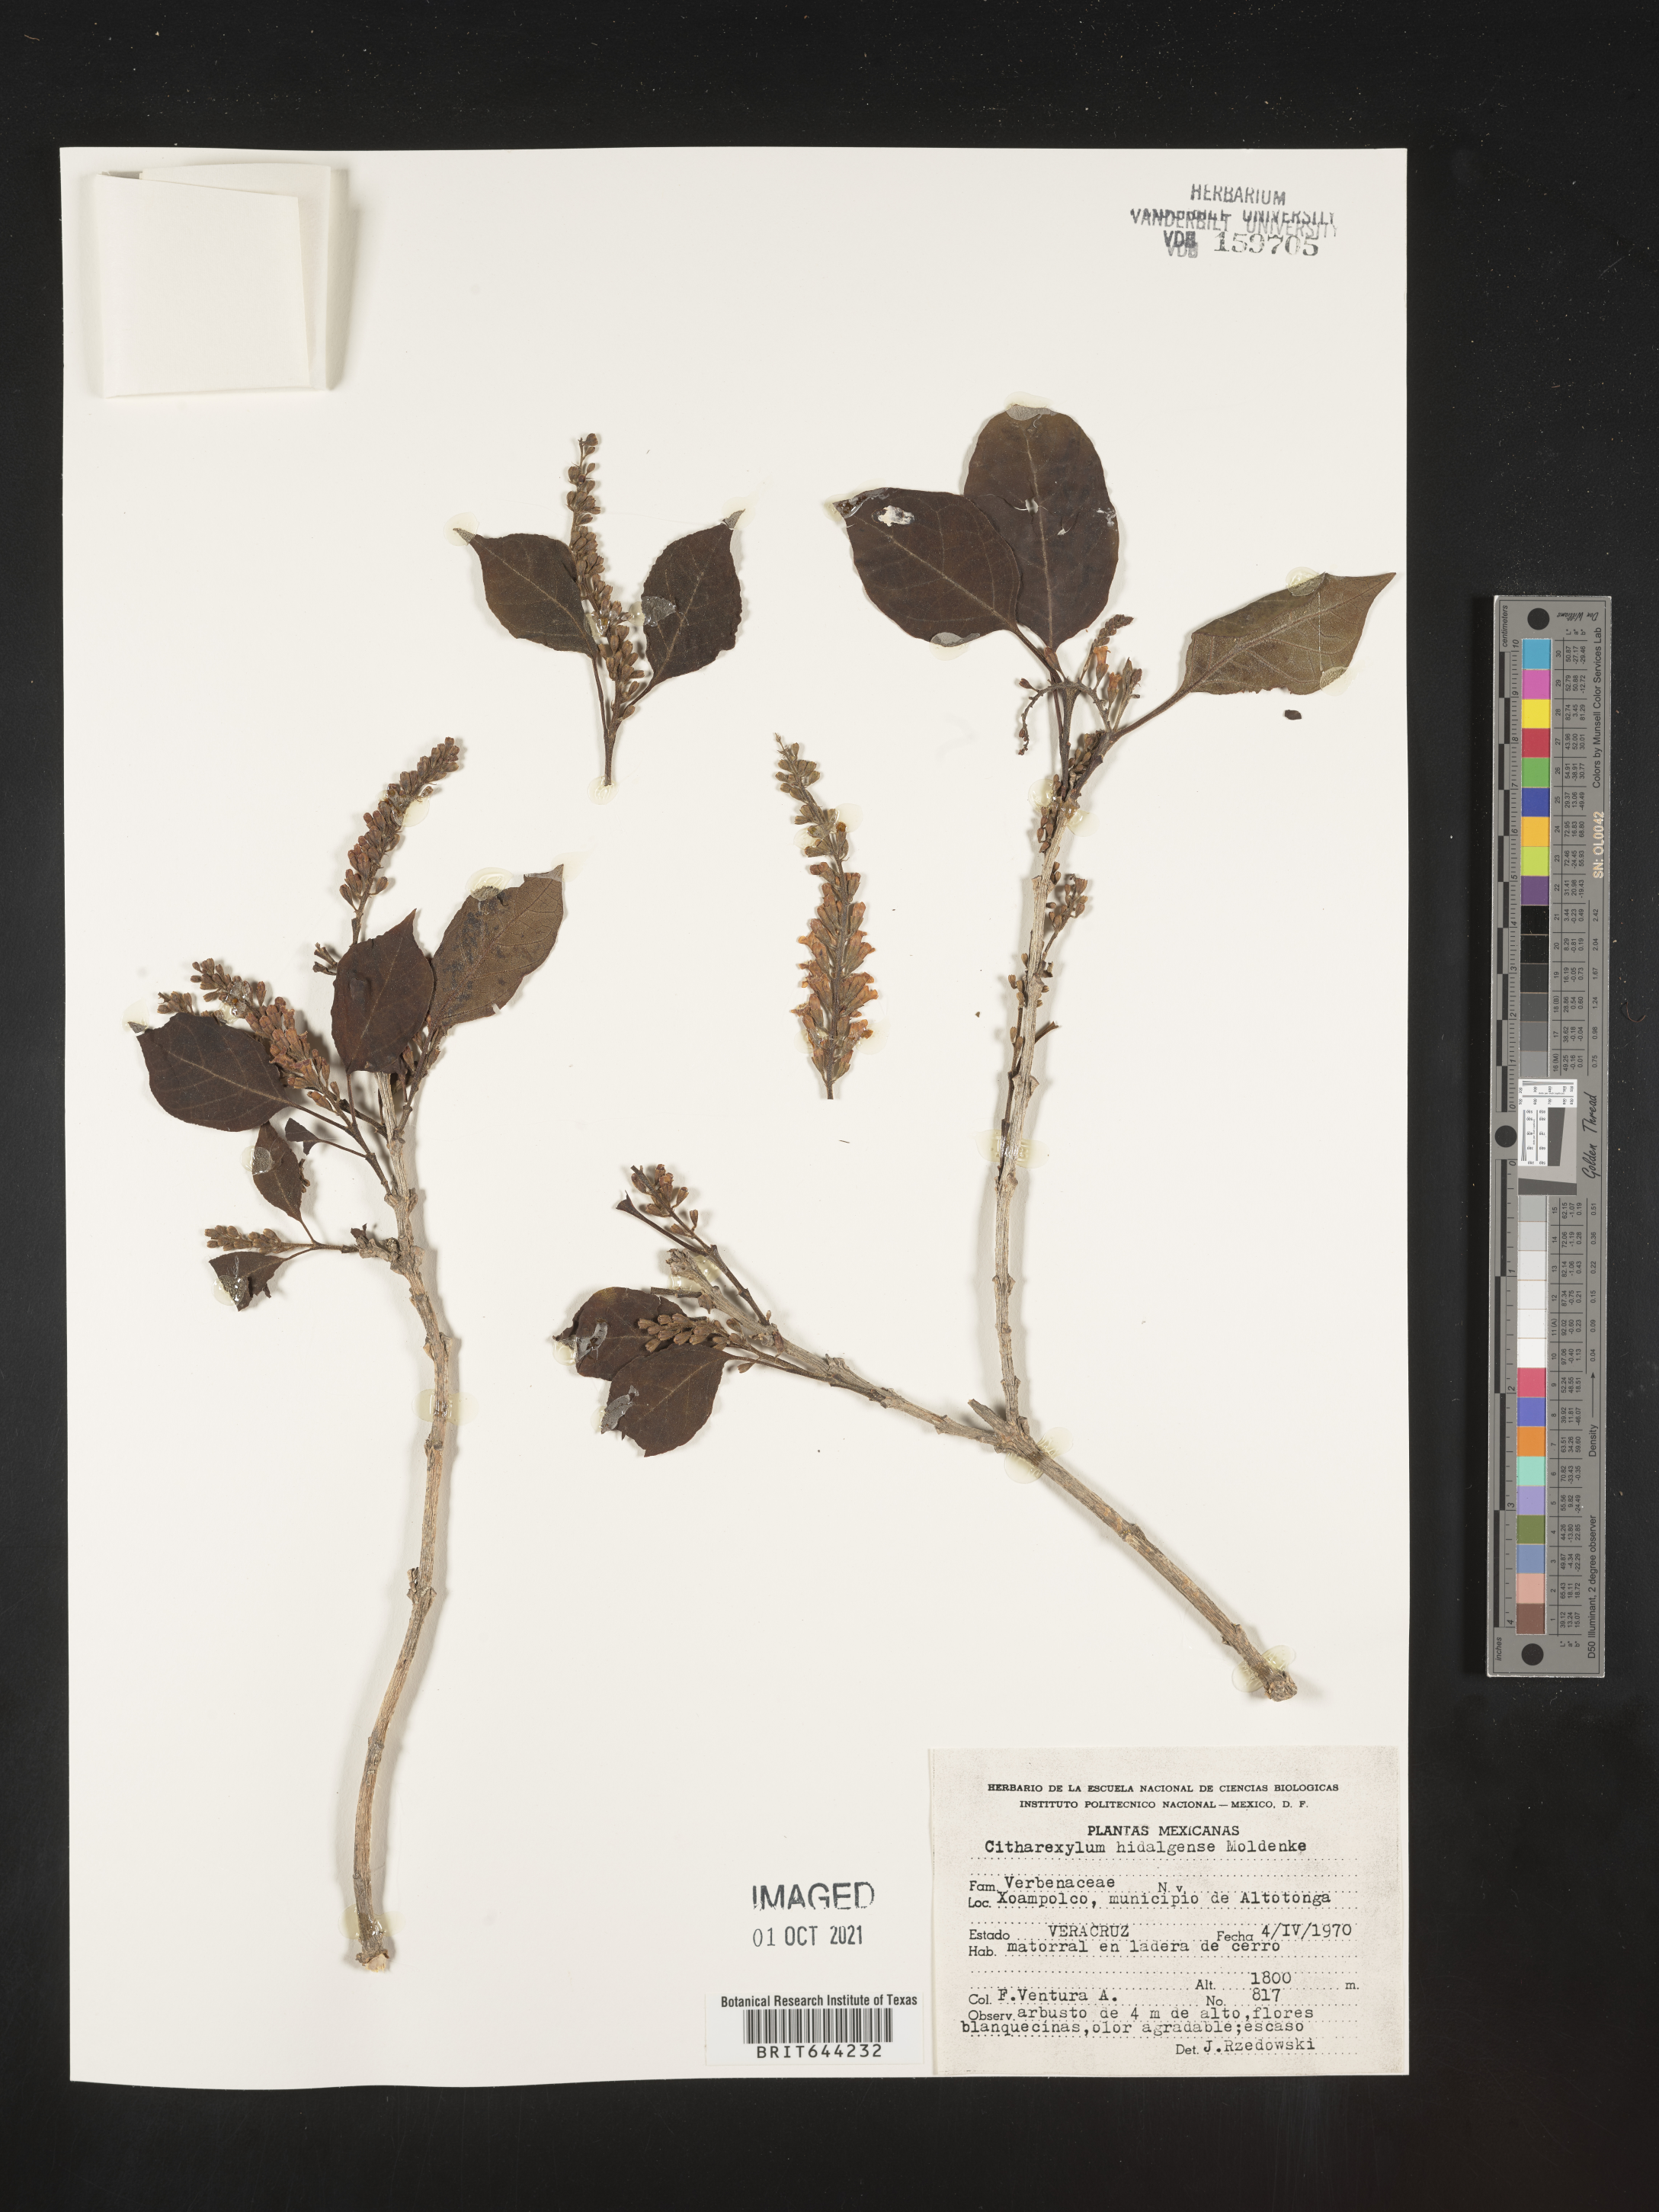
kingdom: Plantae
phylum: Tracheophyta
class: Magnoliopsida
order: Lamiales
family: Verbenaceae
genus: Citharexylum
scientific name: Citharexylum
